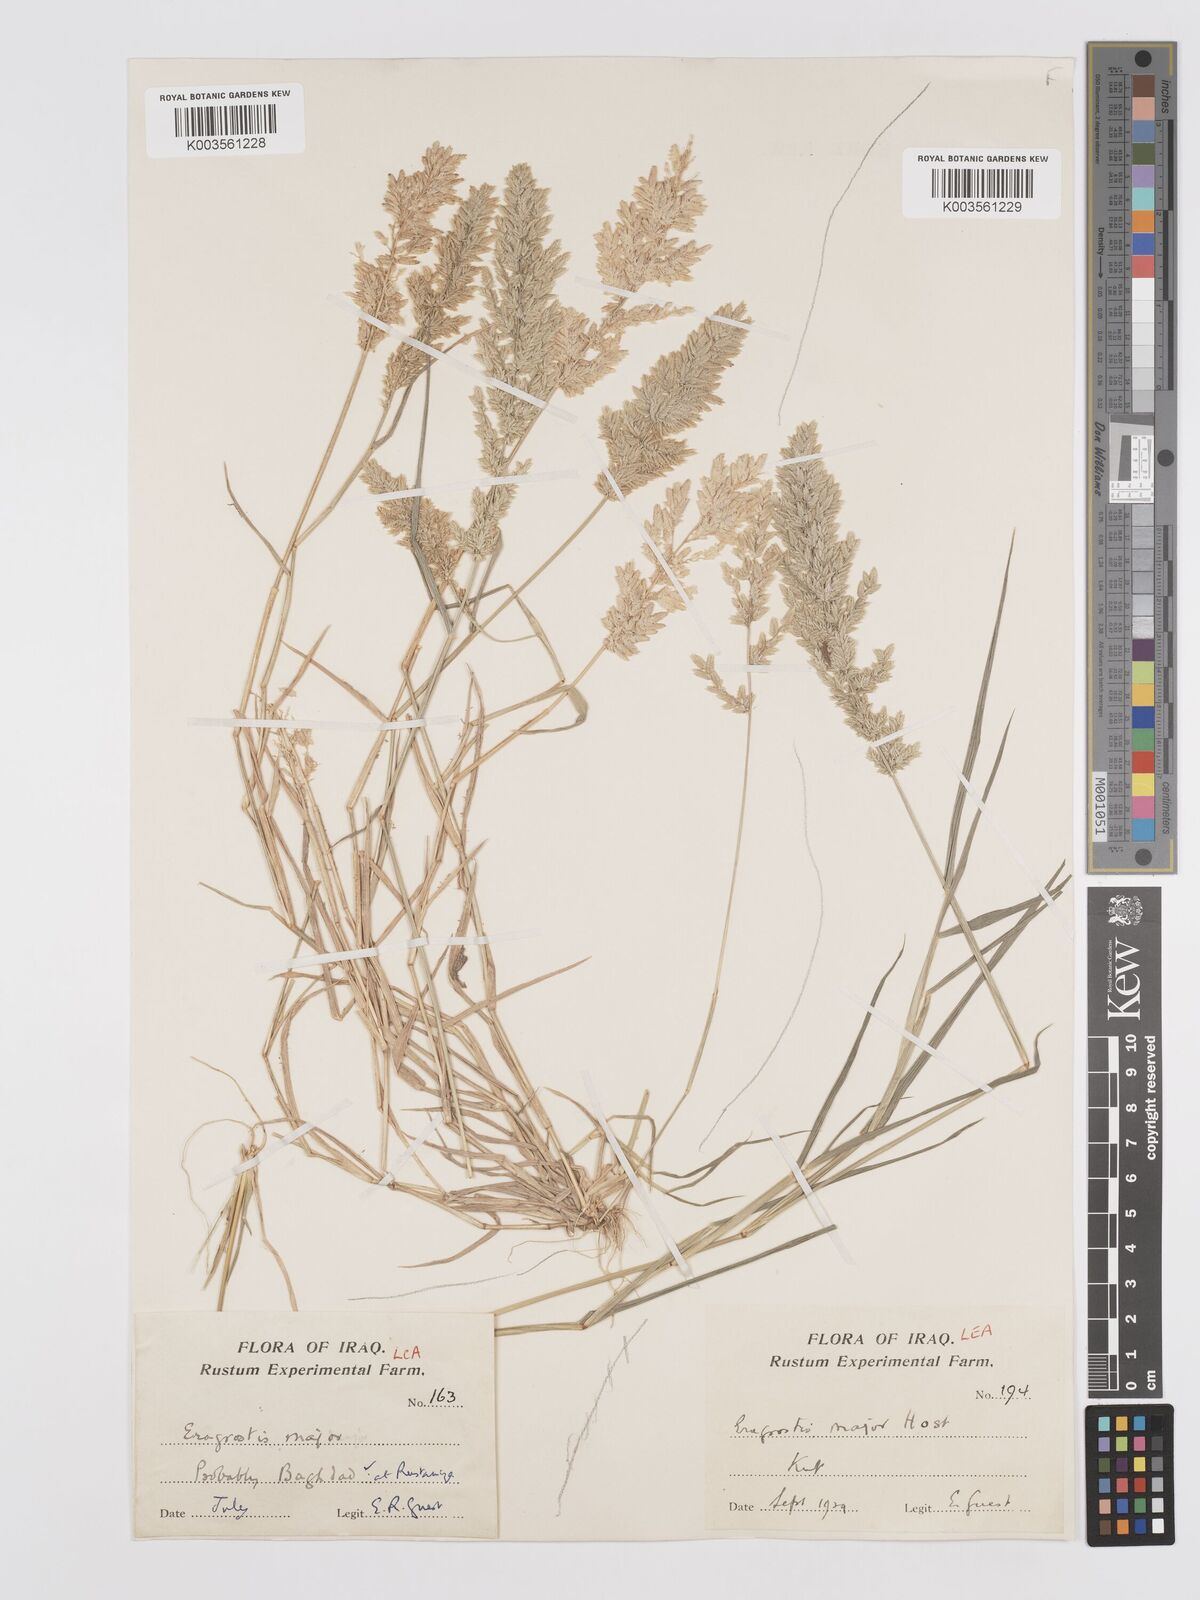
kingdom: Plantae
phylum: Tracheophyta
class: Liliopsida
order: Poales
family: Poaceae
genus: Eragrostis
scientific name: Eragrostis cilianensis
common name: Stinkgrass
